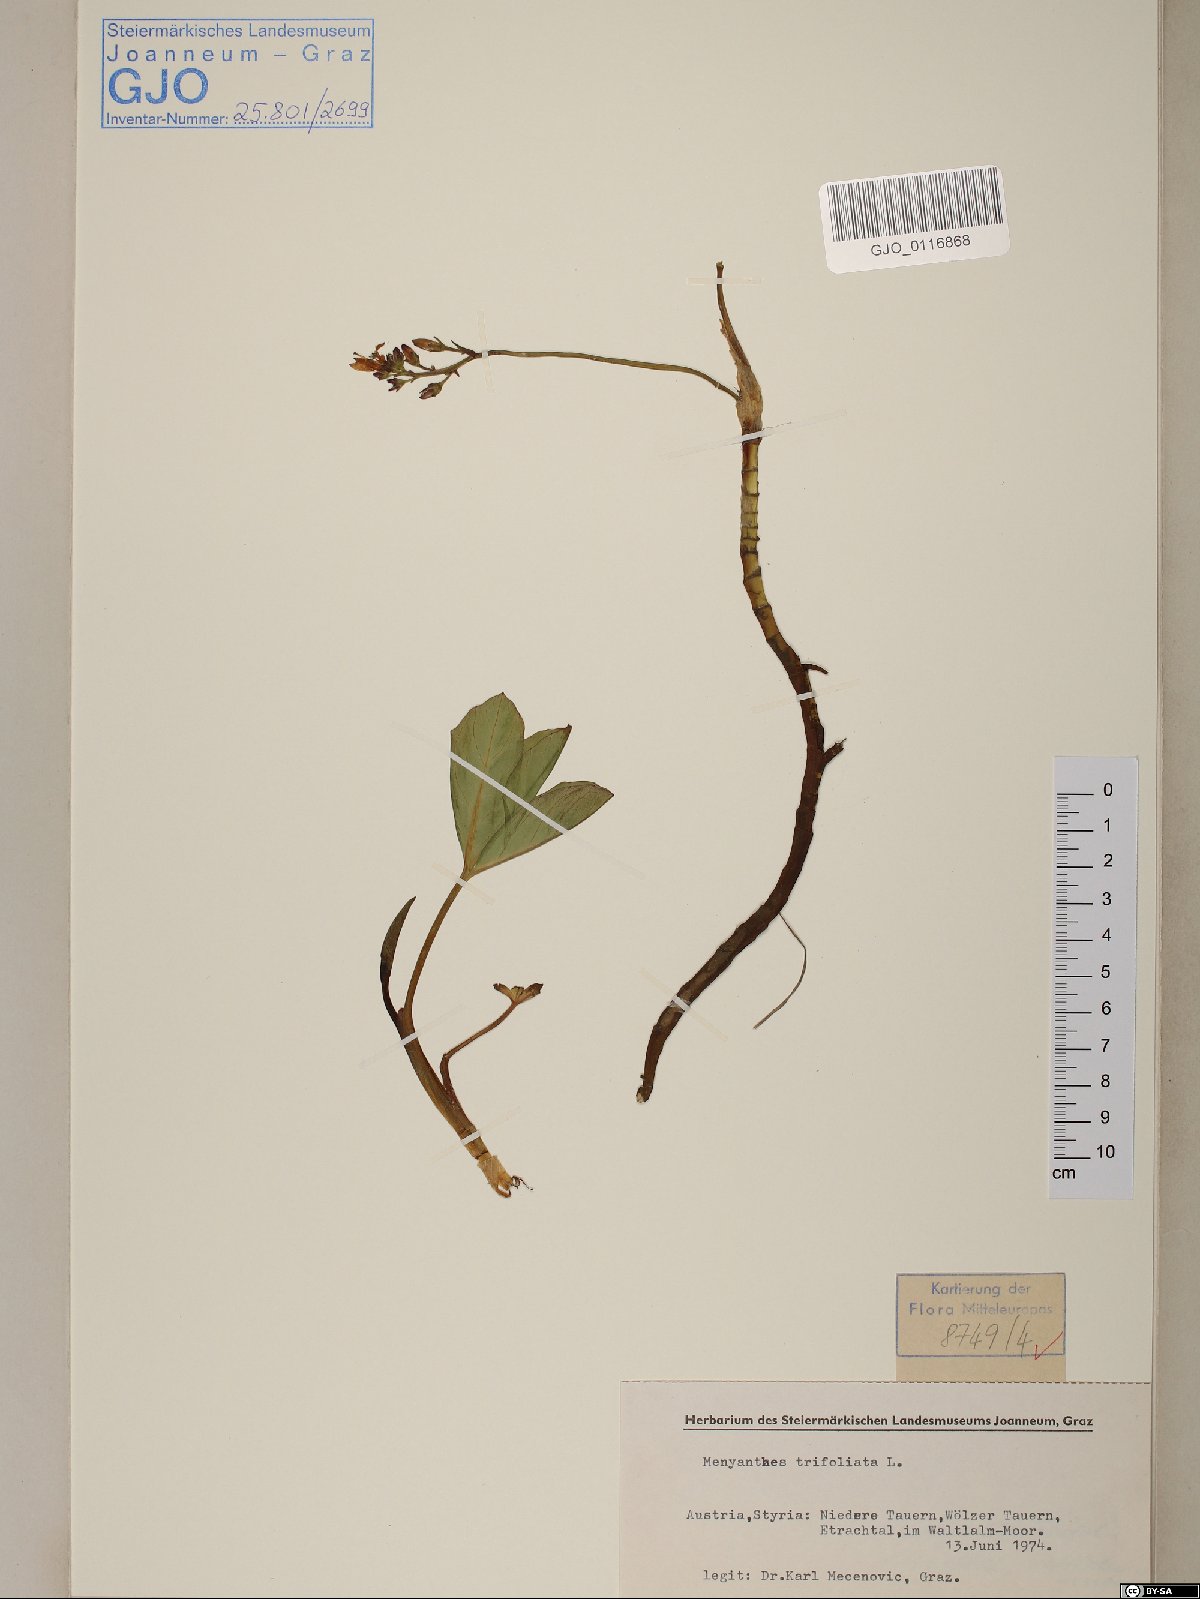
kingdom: Plantae
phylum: Tracheophyta
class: Magnoliopsida
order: Asterales
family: Menyanthaceae
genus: Menyanthes
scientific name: Menyanthes trifoliata
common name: Bogbean
